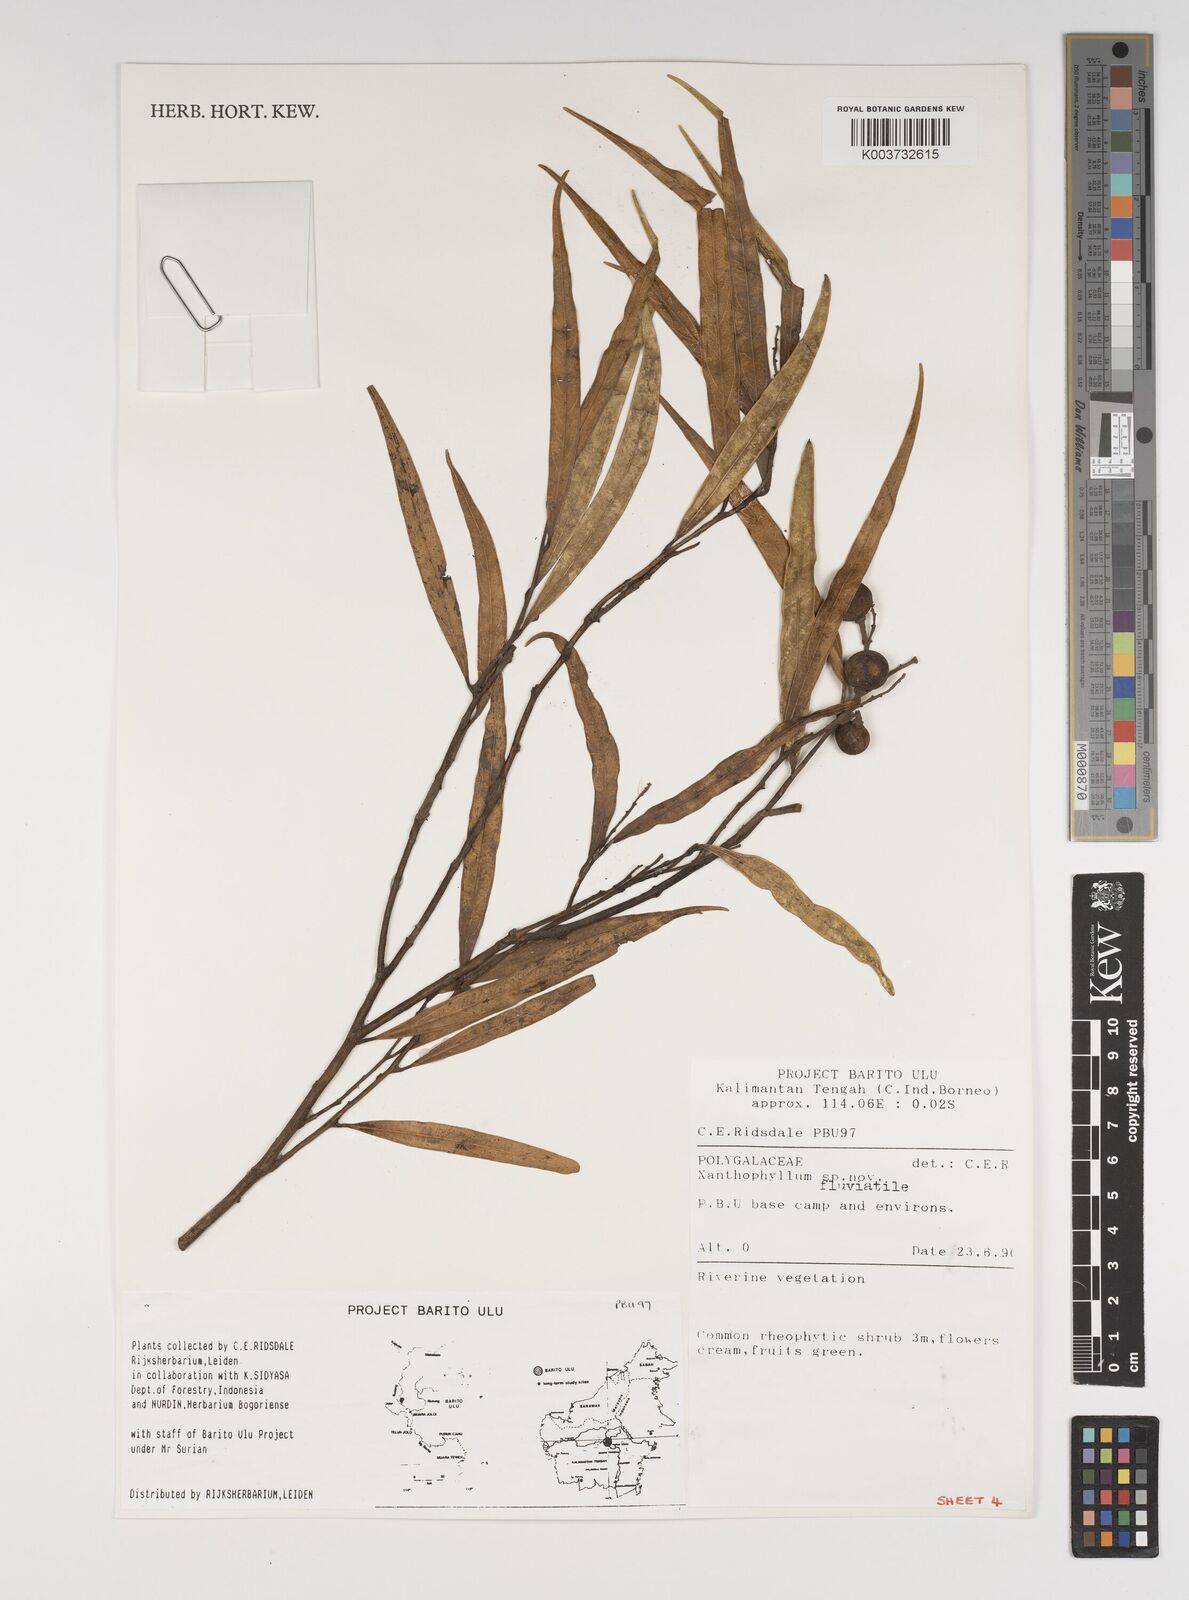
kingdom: Plantae
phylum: Tracheophyta
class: Magnoliopsida
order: Fabales
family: Polygalaceae
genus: Xanthophyllum
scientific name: Xanthophyllum
